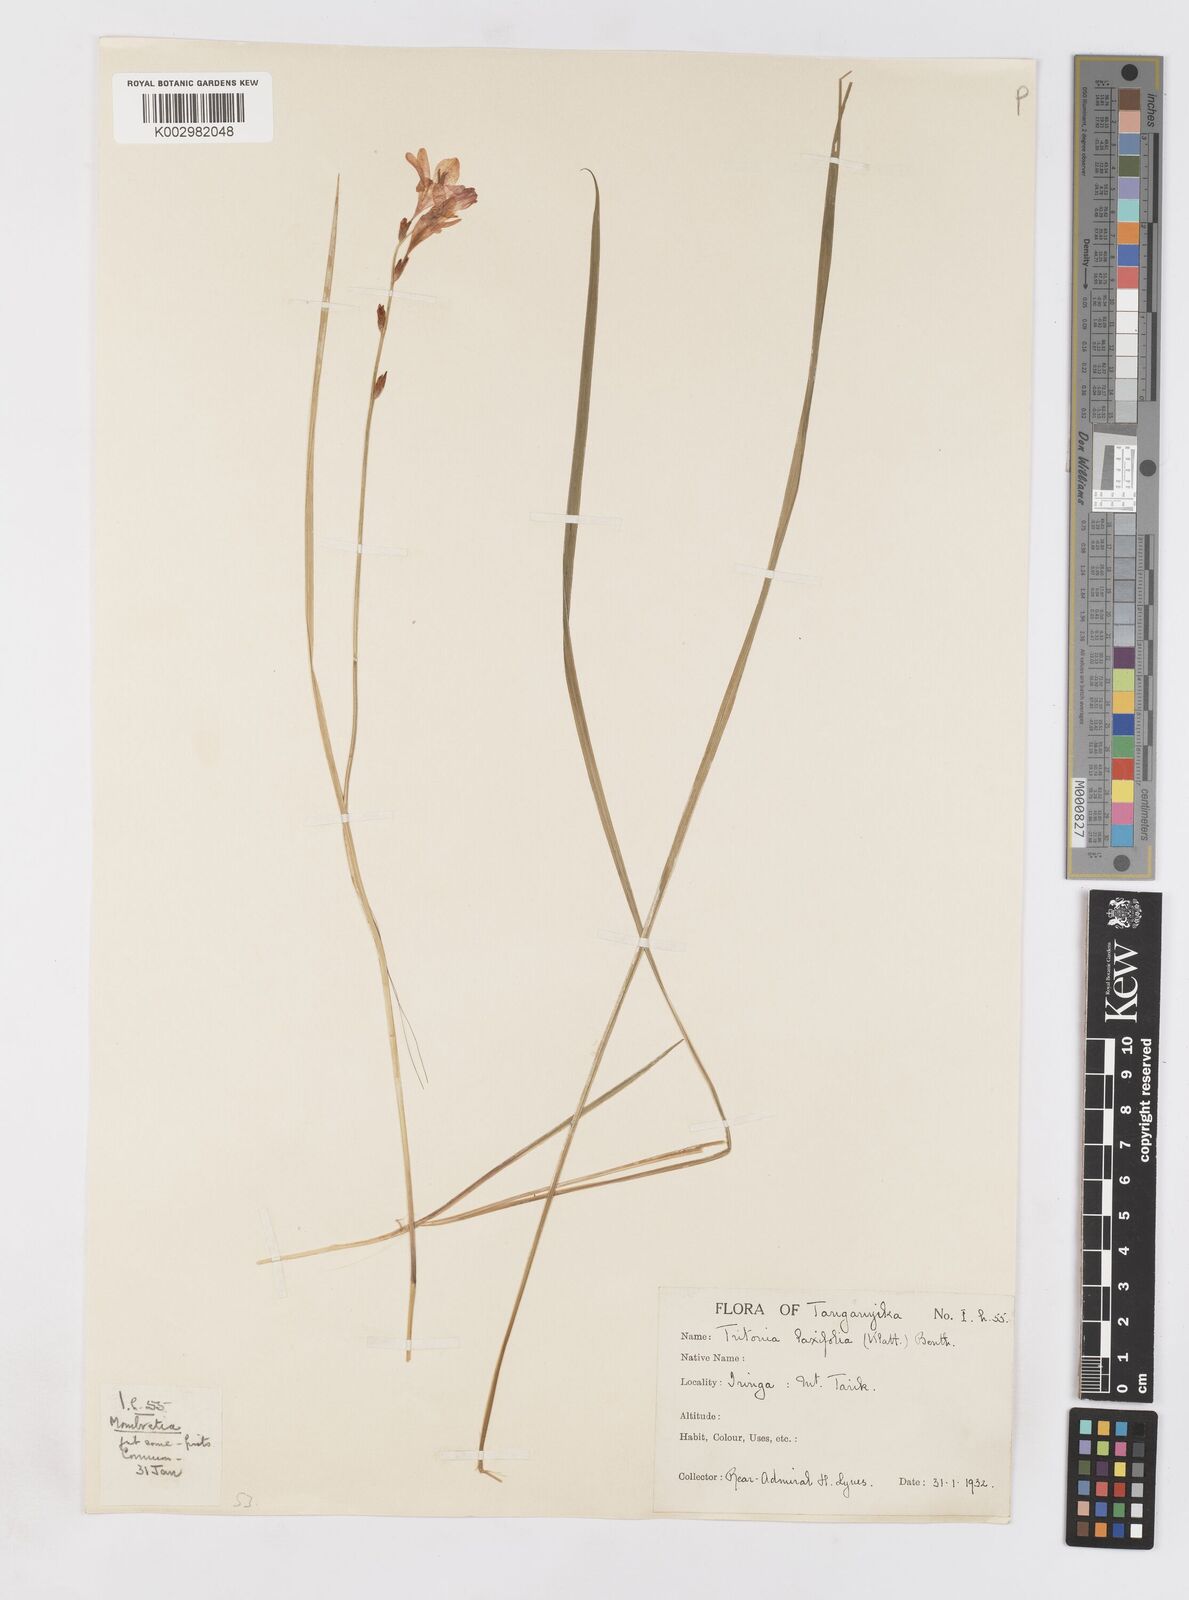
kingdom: Plantae
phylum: Tracheophyta
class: Liliopsida
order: Asparagales
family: Iridaceae
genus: Tritonia
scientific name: Tritonia laxifolia
